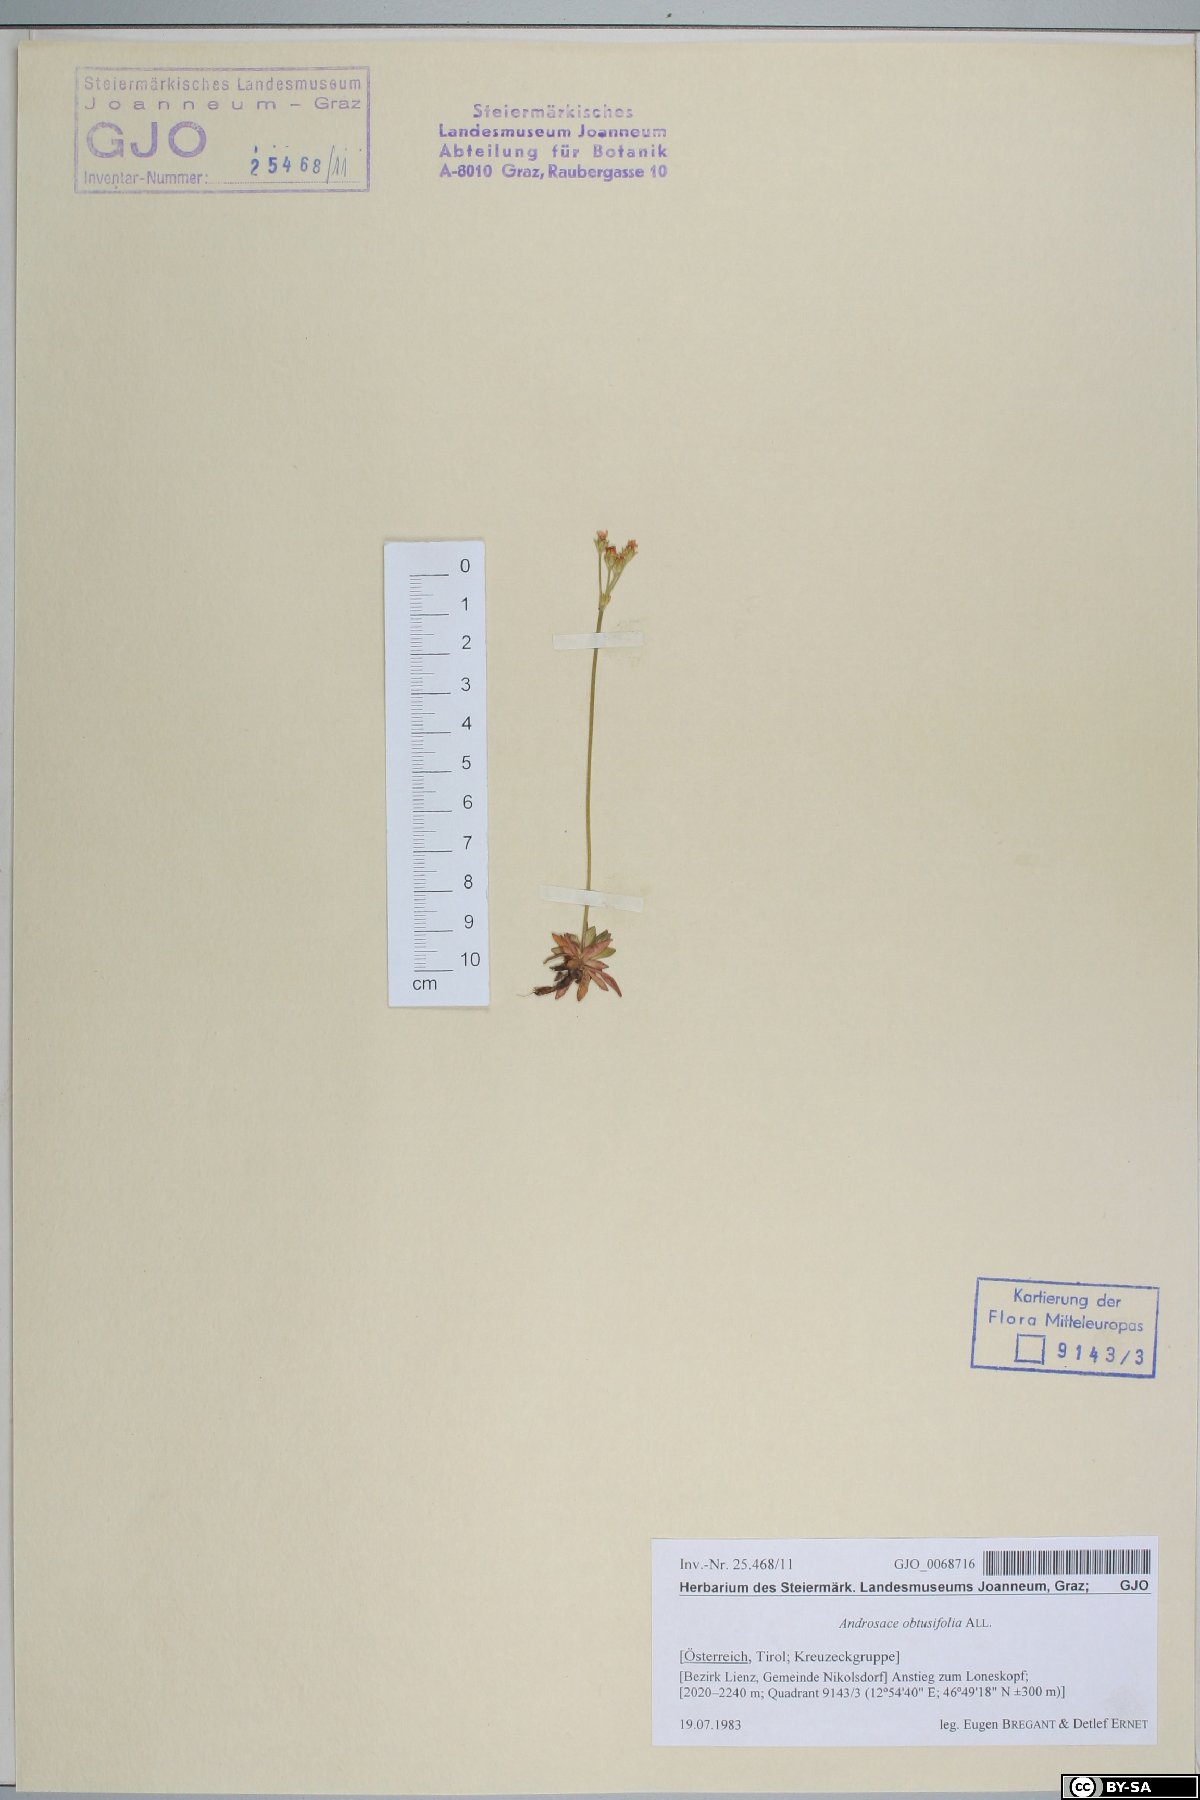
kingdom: Plantae
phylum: Tracheophyta
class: Magnoliopsida
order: Ericales
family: Primulaceae
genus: Androsace
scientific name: Androsace obtusifolia
